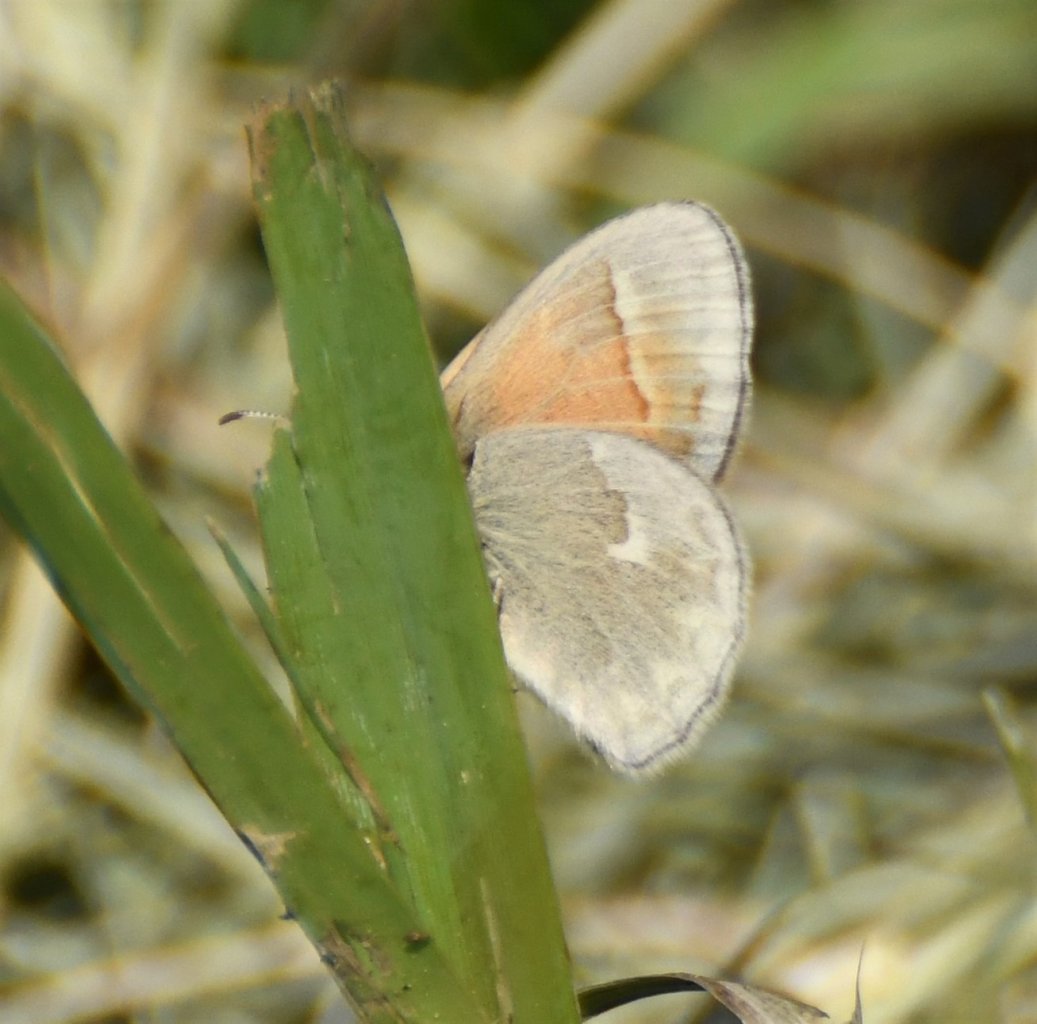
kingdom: Animalia
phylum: Arthropoda
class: Insecta
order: Lepidoptera
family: Nymphalidae
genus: Coenonympha
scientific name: Coenonympha tullia
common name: Large Heath
